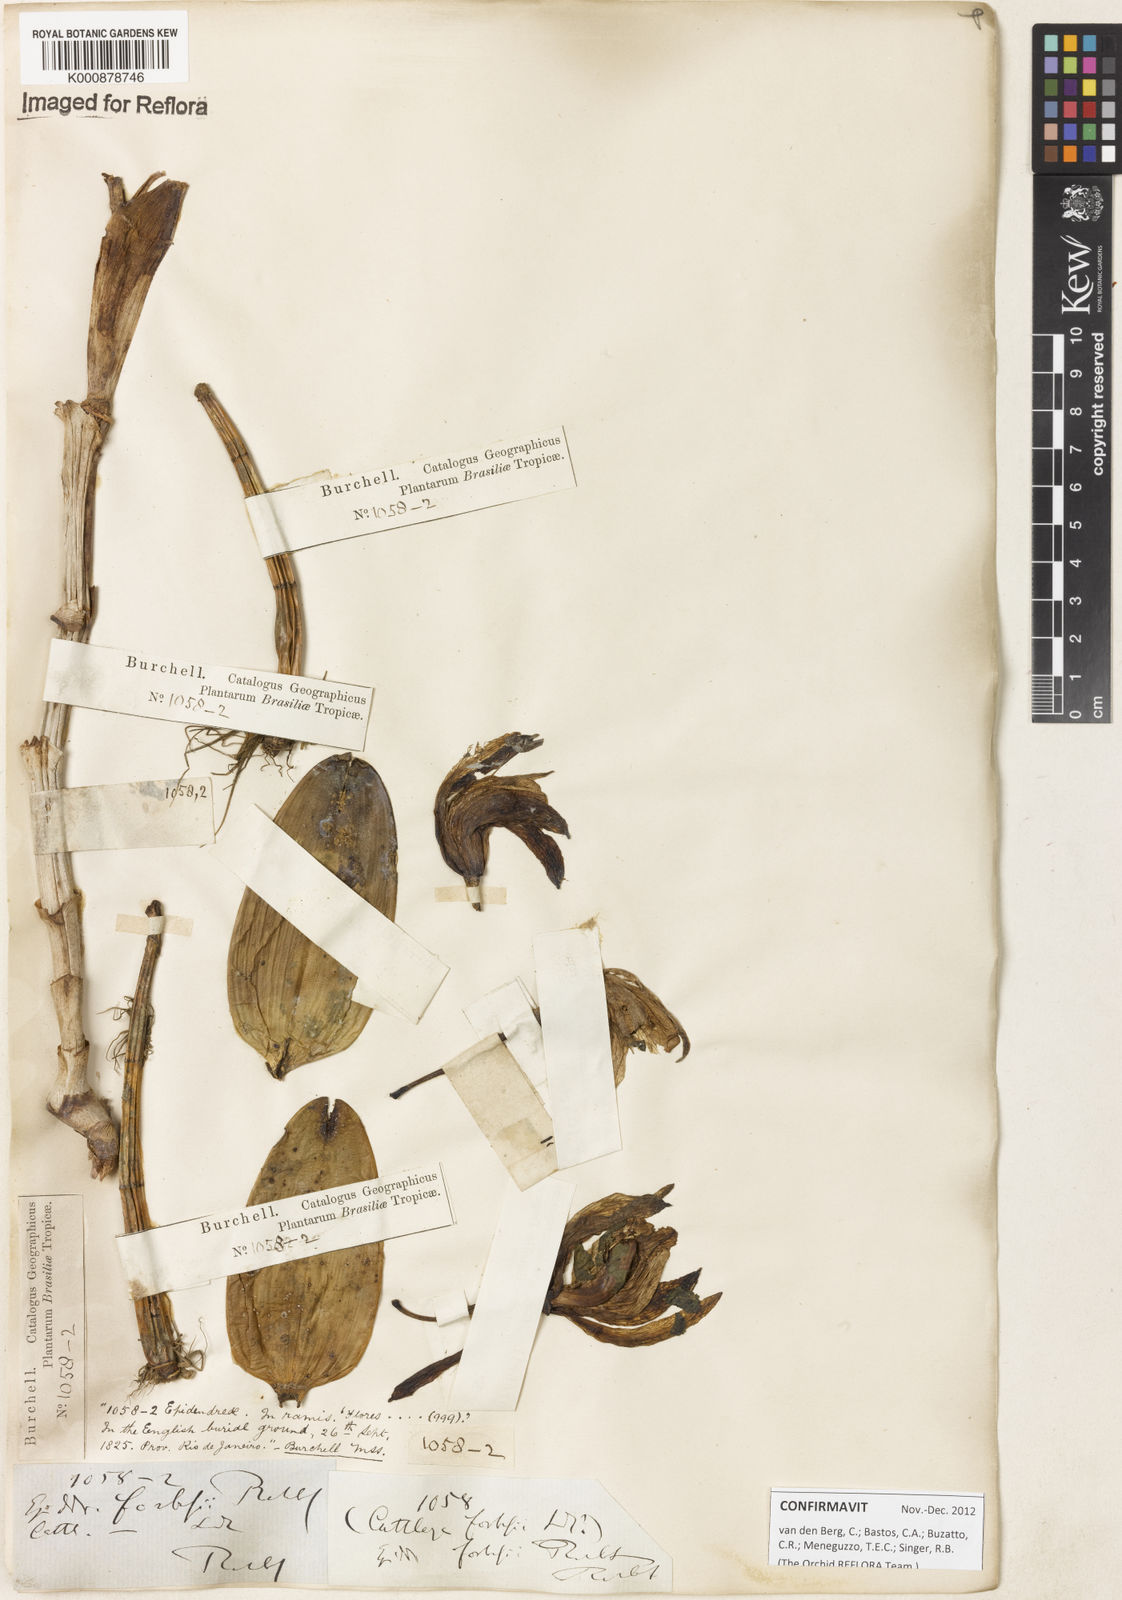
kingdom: Plantae
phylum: Tracheophyta
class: Liliopsida
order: Asparagales
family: Orchidaceae
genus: Cattleya
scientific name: Cattleya forbesii
